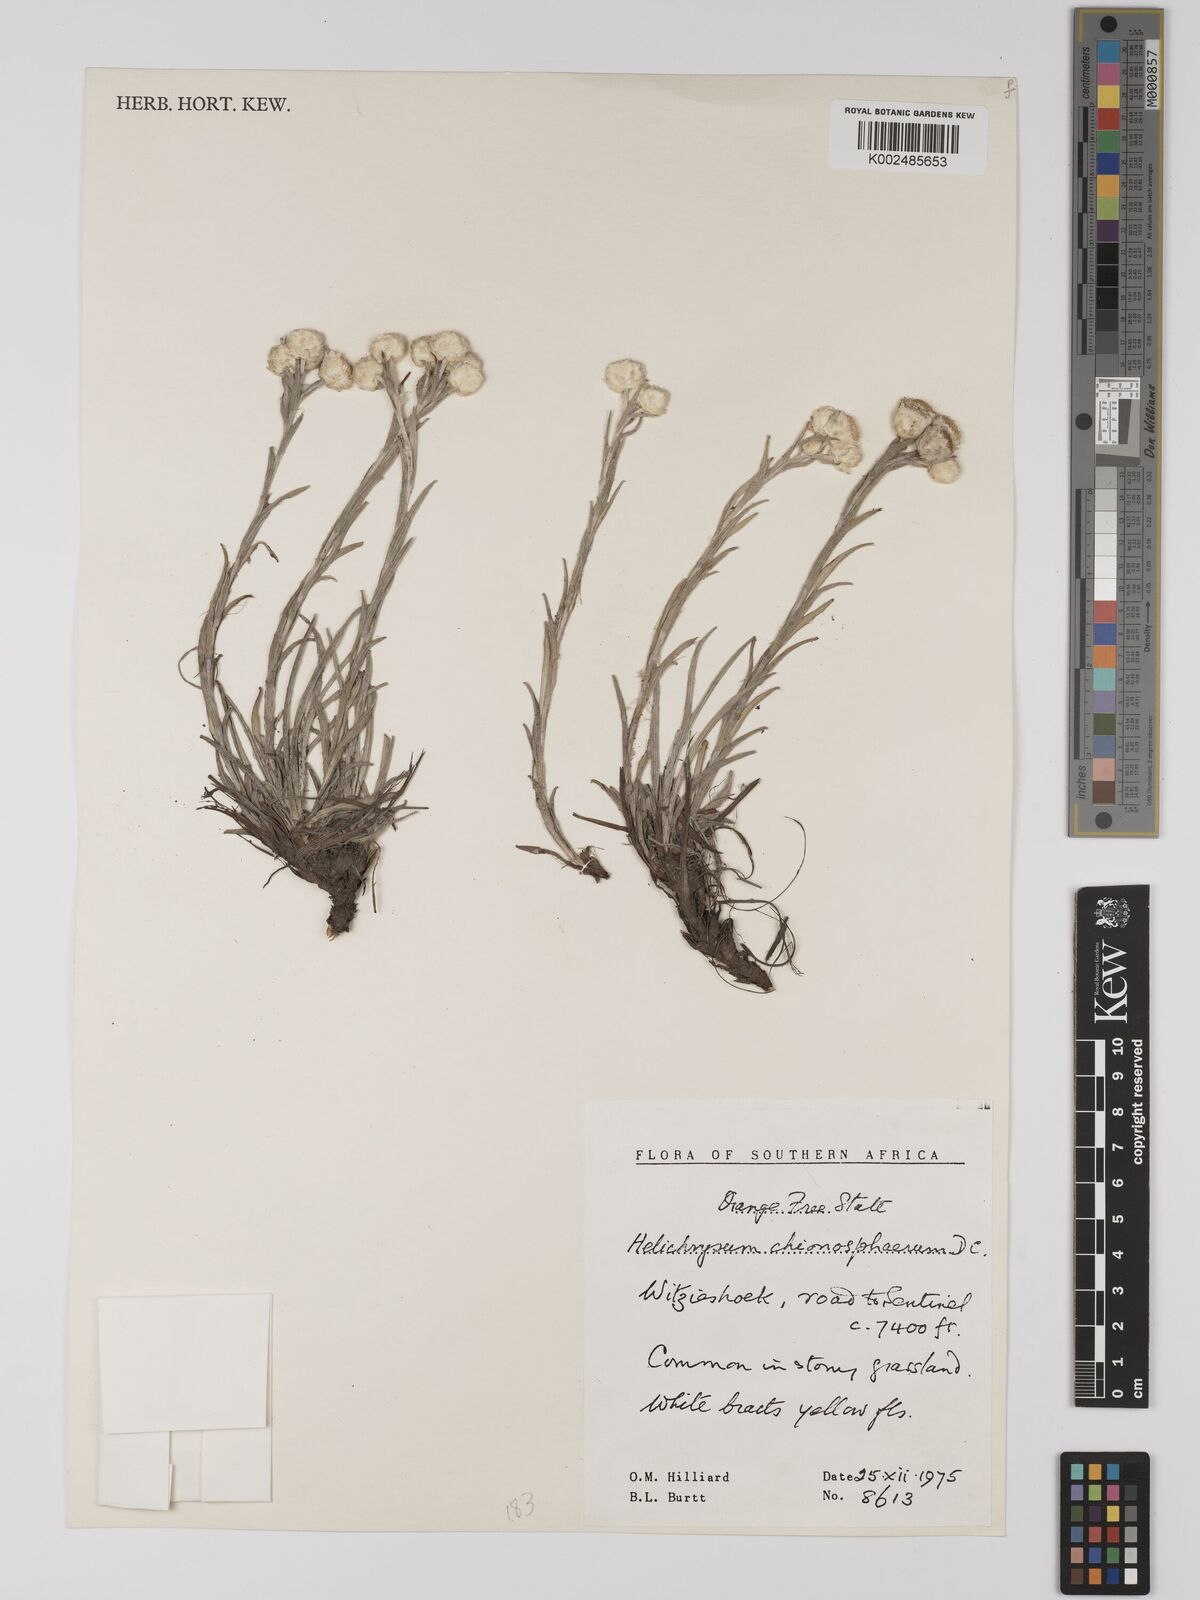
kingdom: Plantae
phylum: Tracheophyta
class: Magnoliopsida
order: Asterales
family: Asteraceae
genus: Helichrysum
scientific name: Helichrysum chionosphaerum
